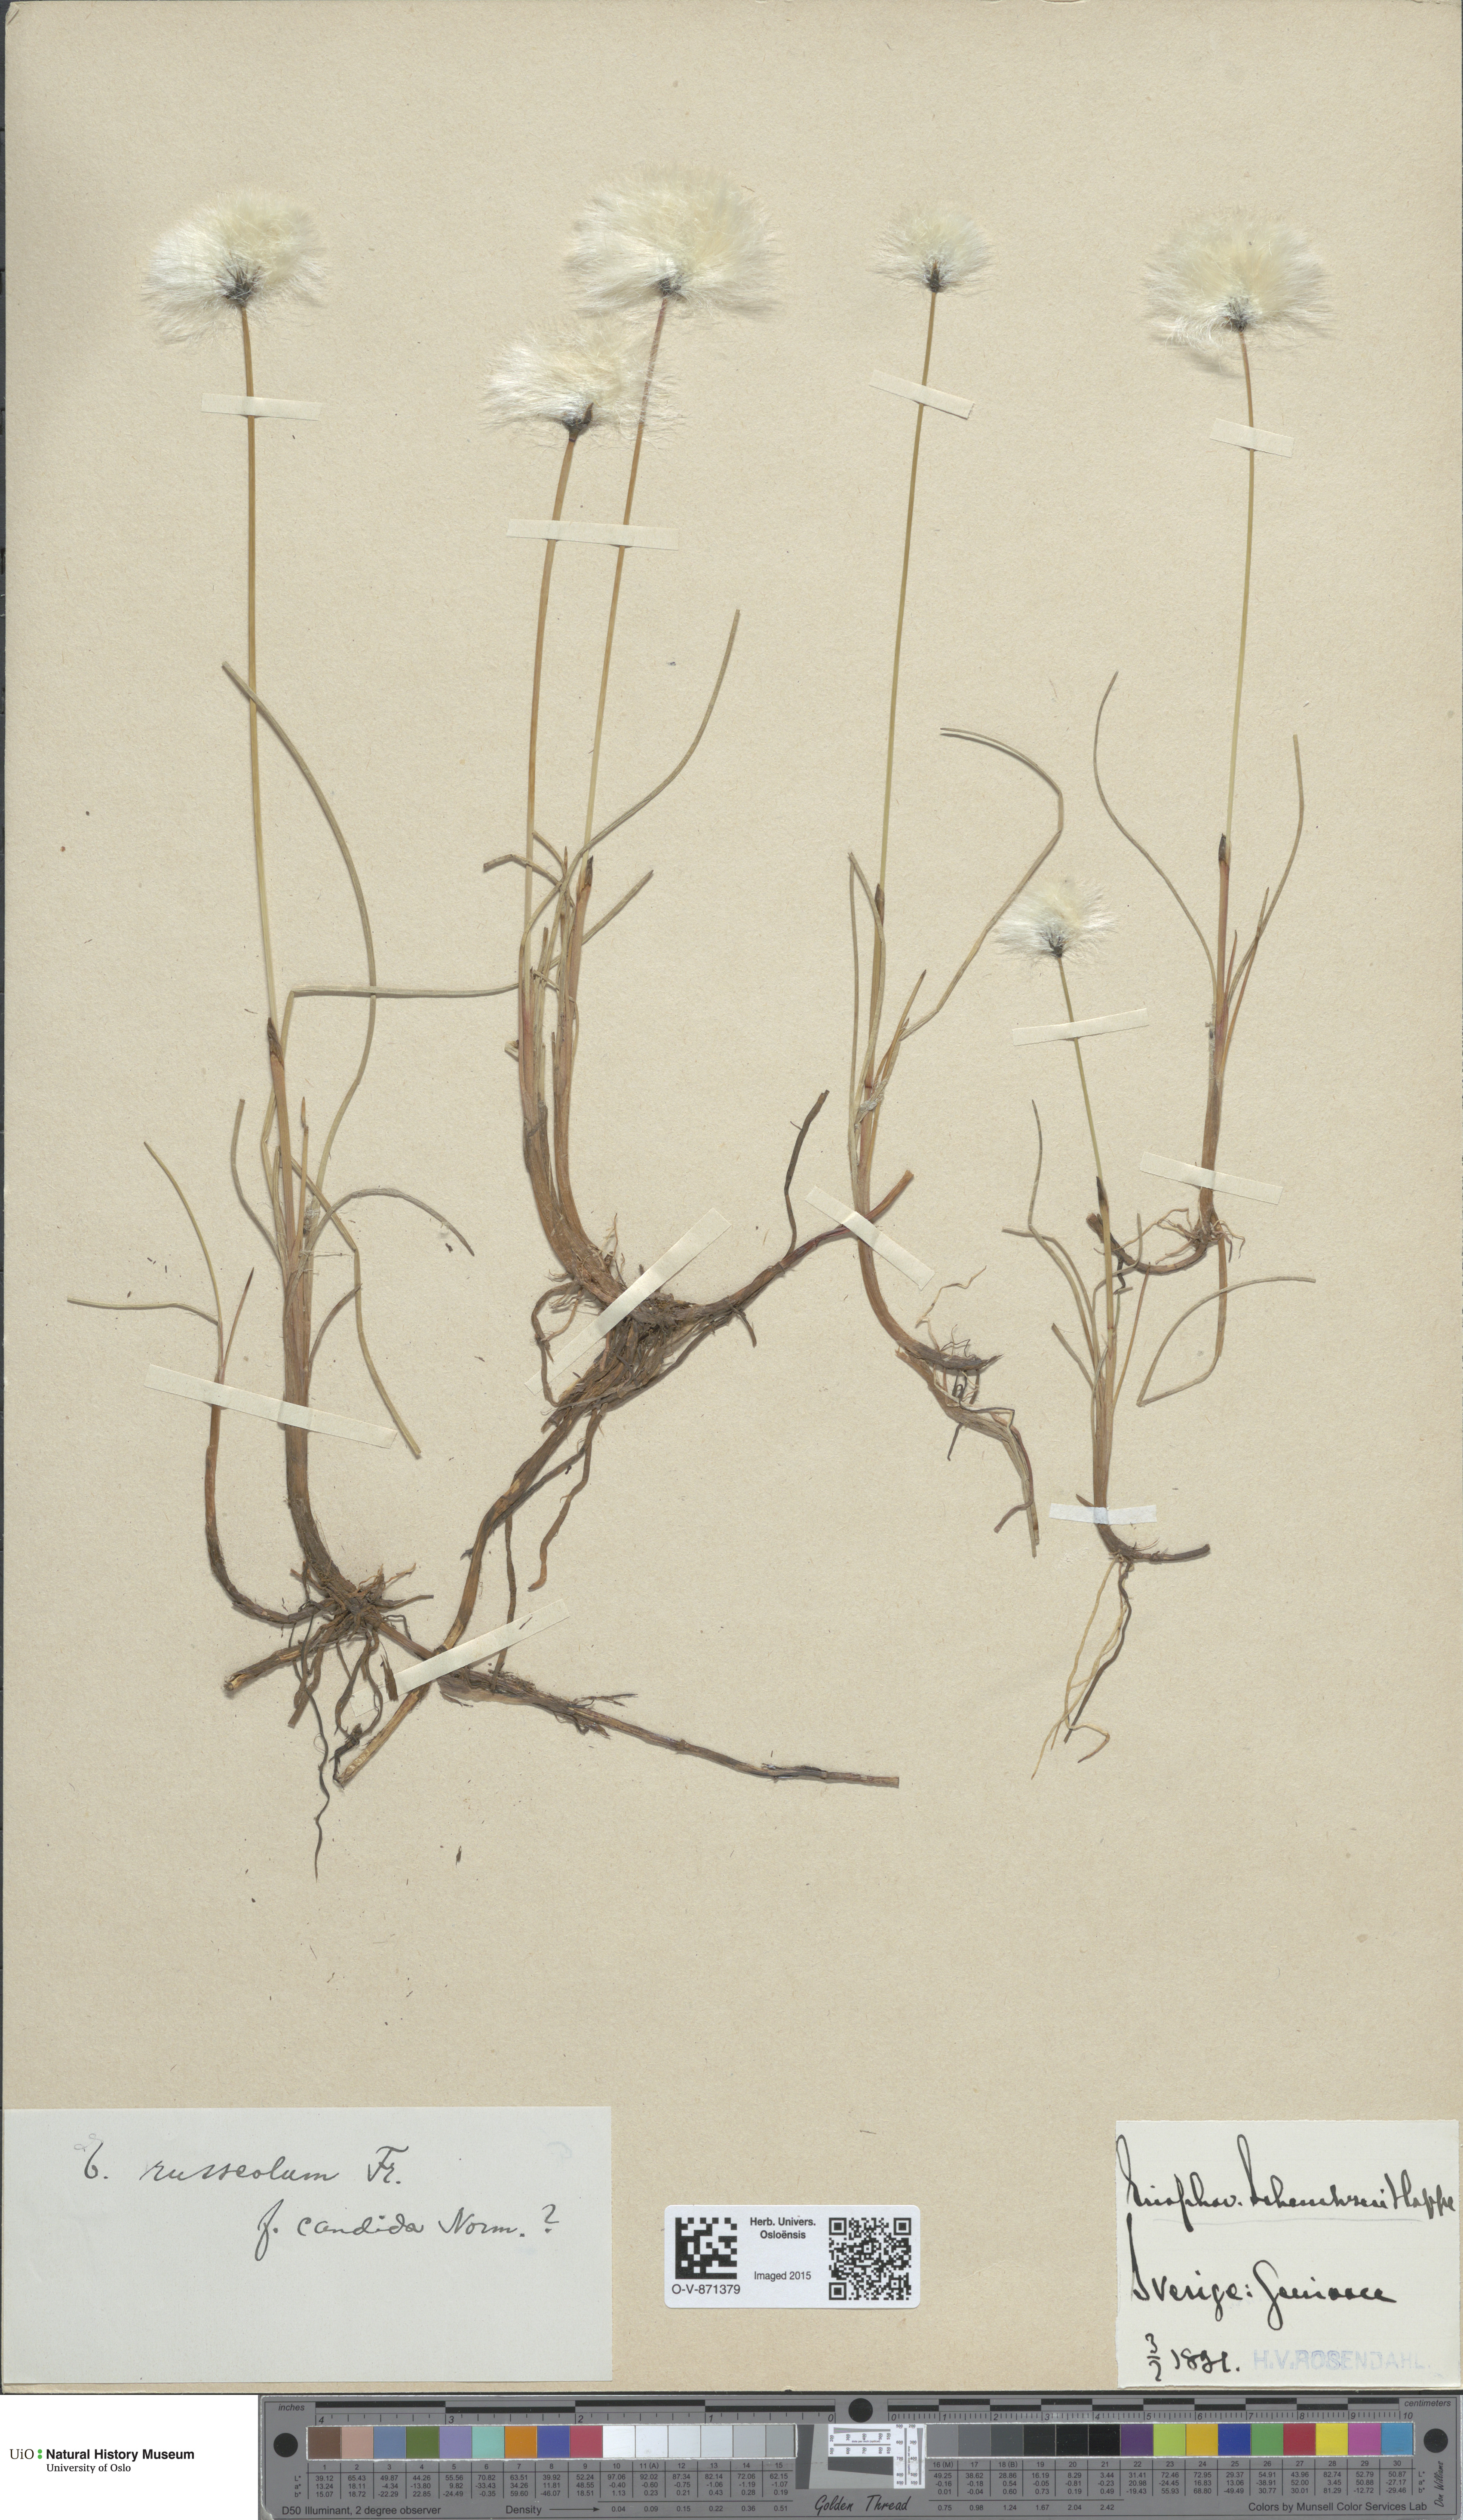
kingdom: Plantae
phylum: Tracheophyta
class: Liliopsida
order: Poales
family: Cyperaceae
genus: Eriophorum
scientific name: Eriophorum scheuchzeri
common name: Scheuchzer's cottongrass
